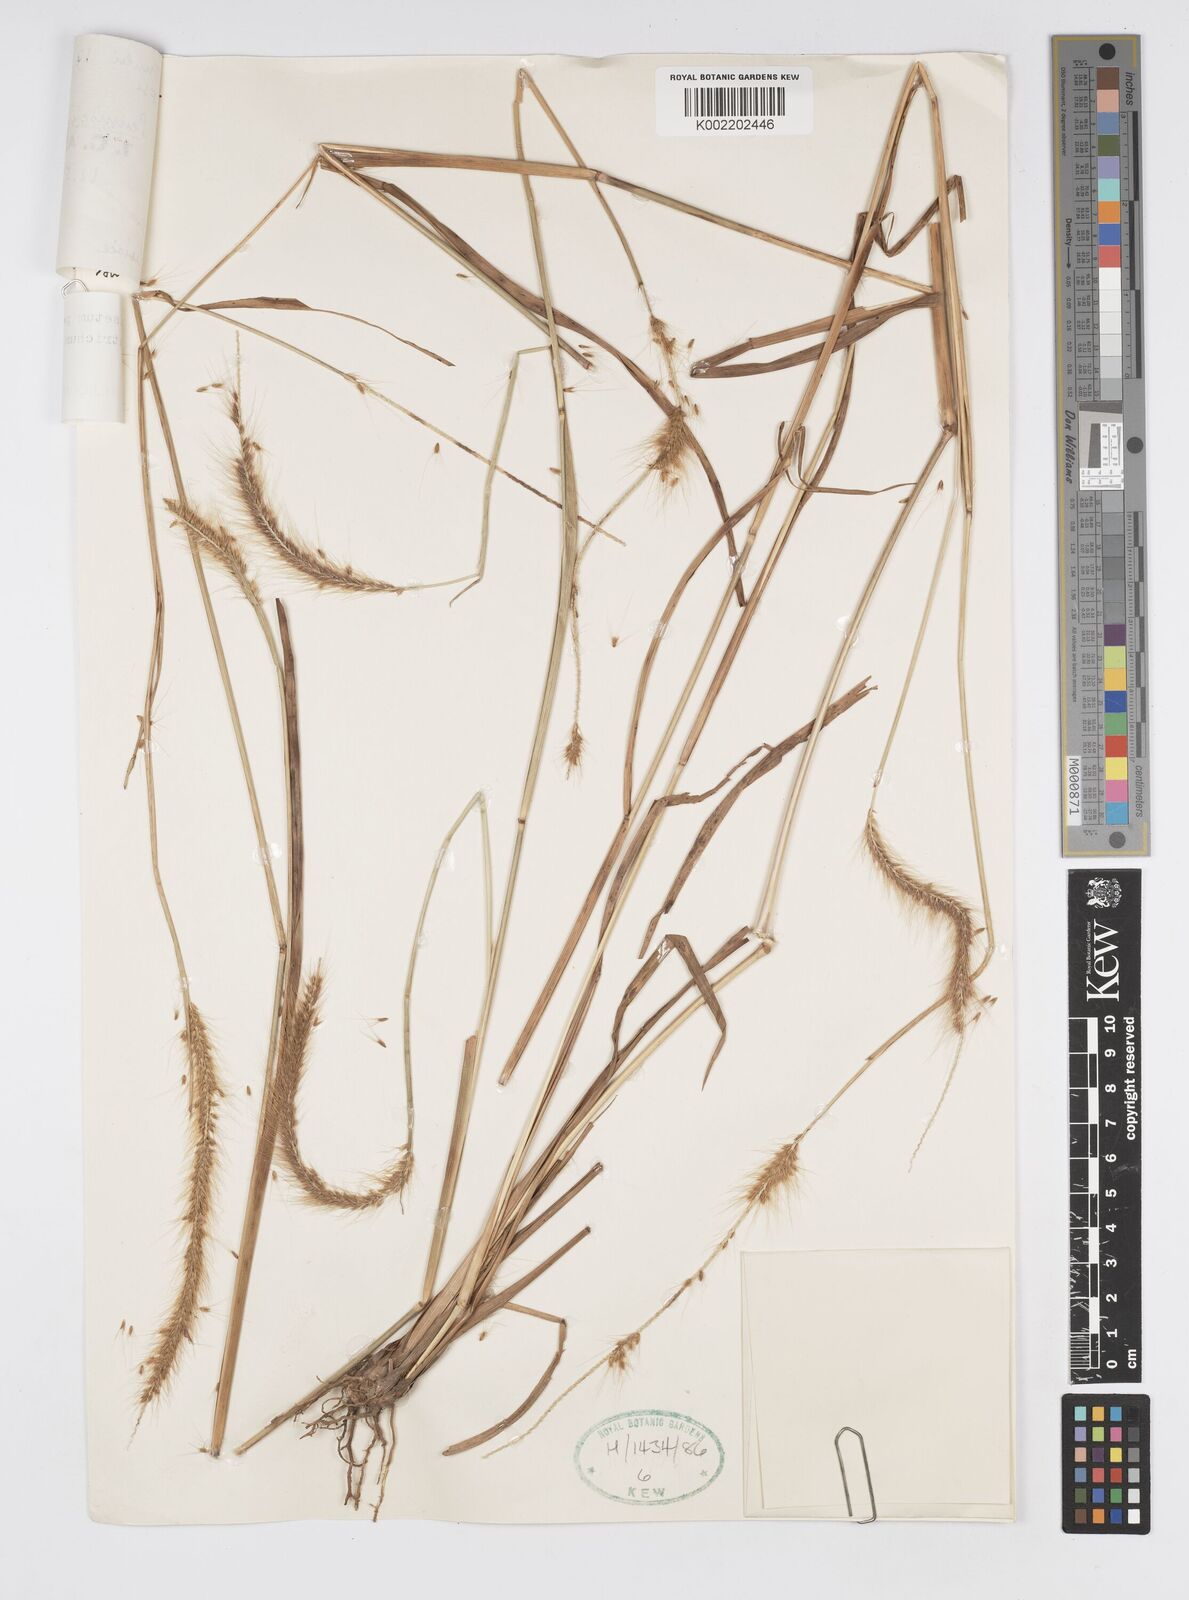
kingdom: Plantae
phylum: Tracheophyta
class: Liliopsida
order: Poales
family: Poaceae
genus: Cenchrus
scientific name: Cenchrus setosus
